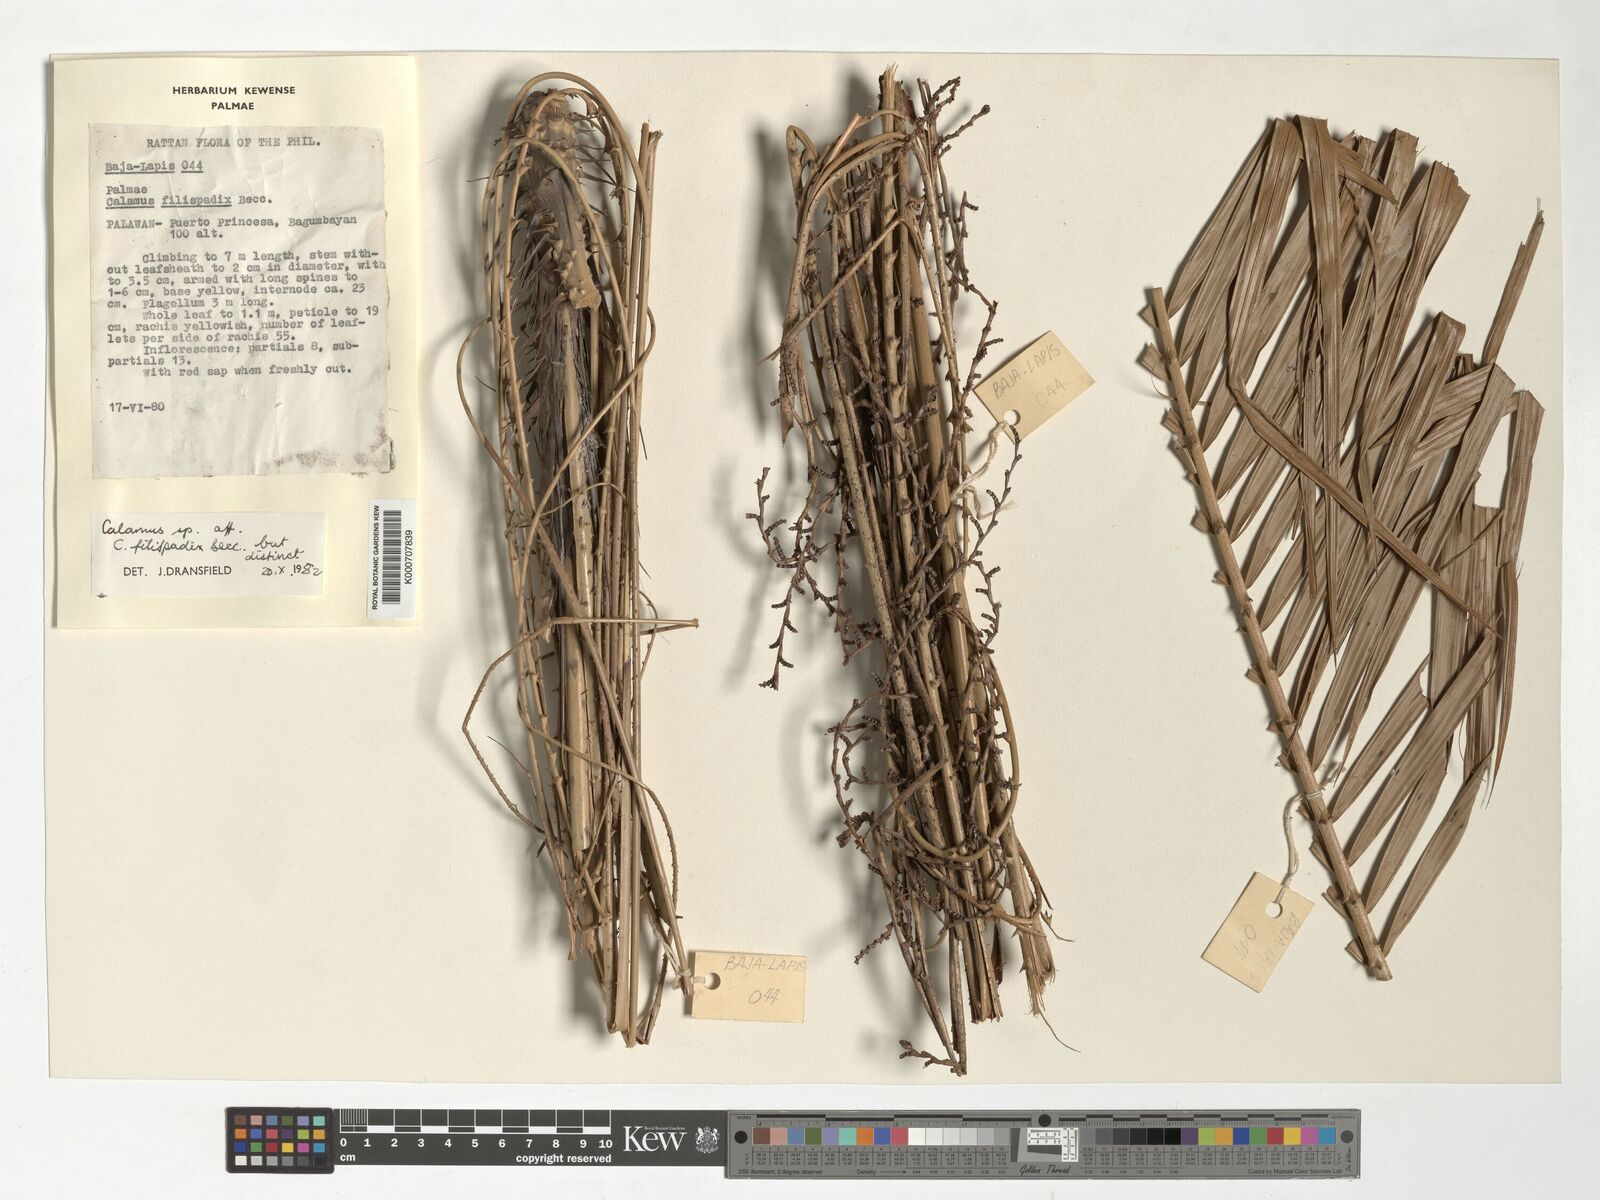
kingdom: Plantae
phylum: Tracheophyta
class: Liliopsida
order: Arecales
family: Arecaceae
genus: Calamus
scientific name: Calamus filispadix
